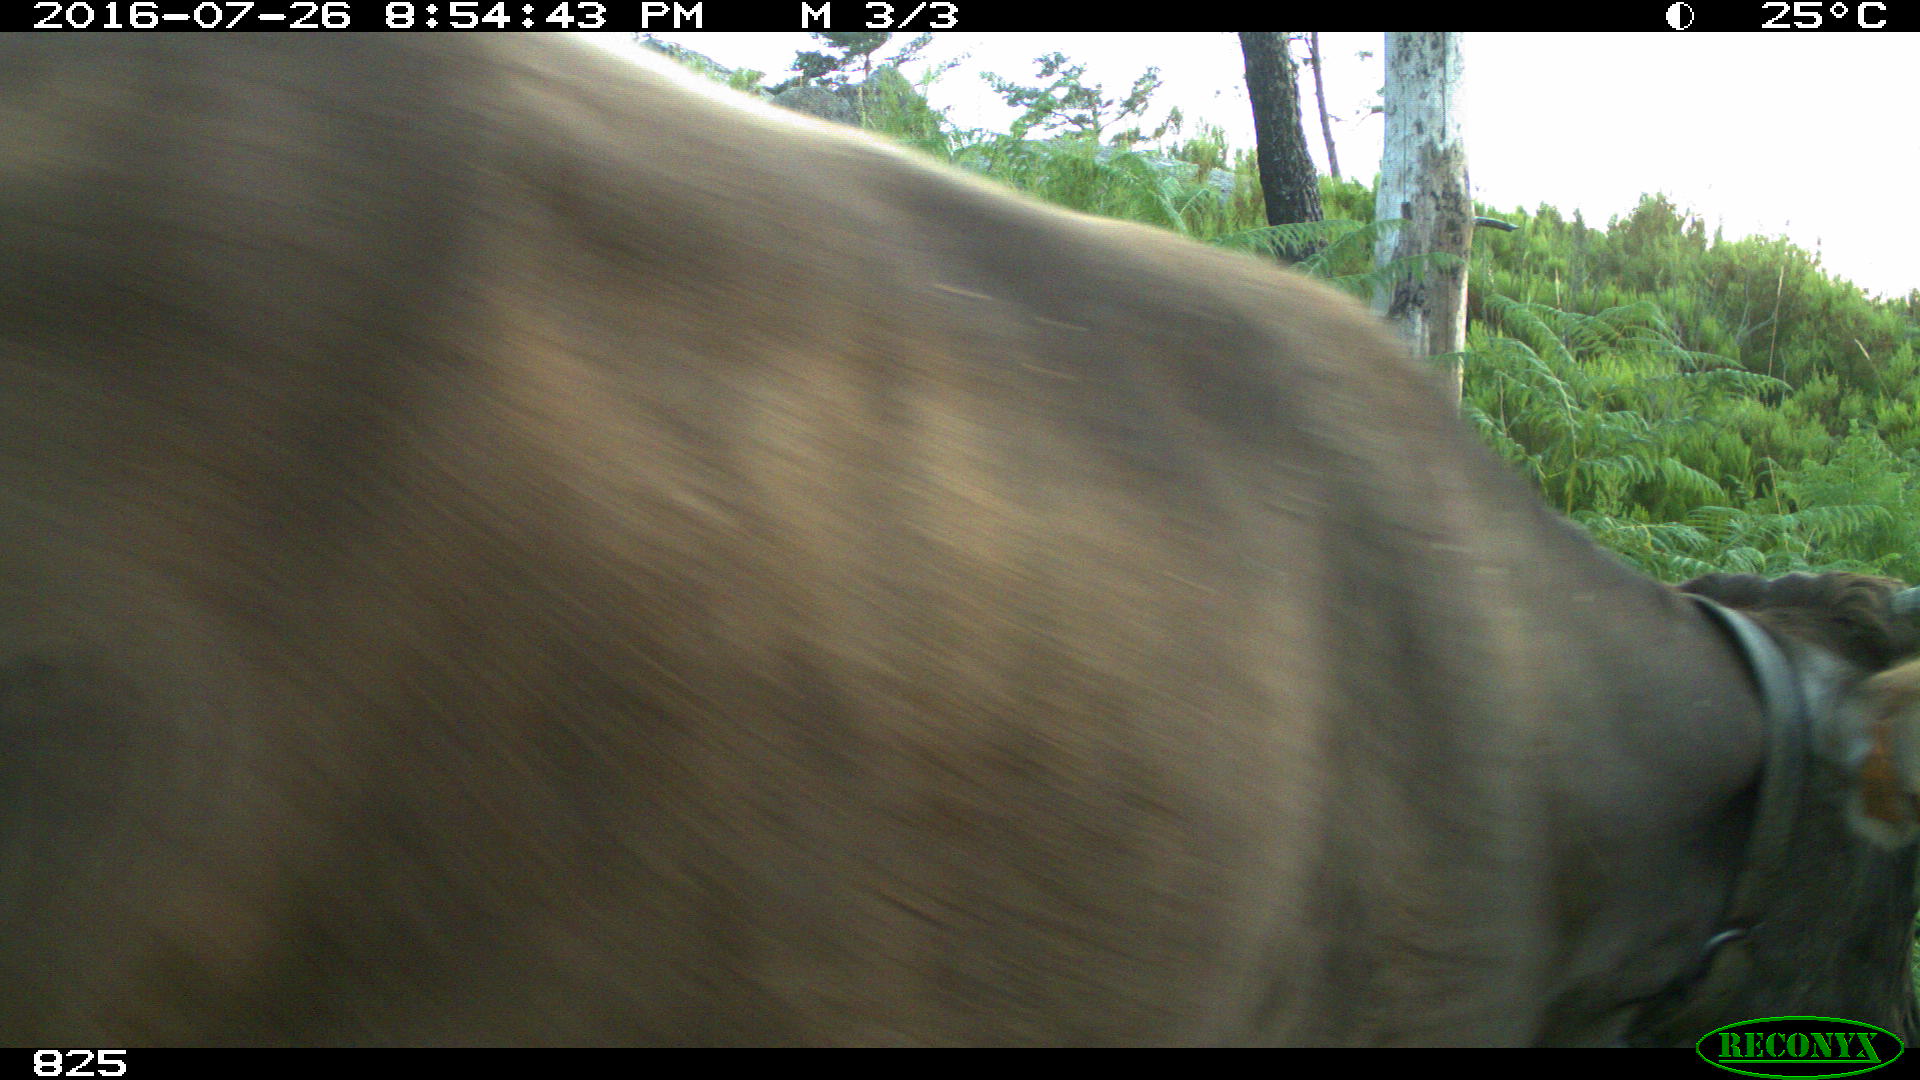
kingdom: Animalia
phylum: Chordata
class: Mammalia
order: Artiodactyla
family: Bovidae
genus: Bos
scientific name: Bos taurus
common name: Domesticated cattle
